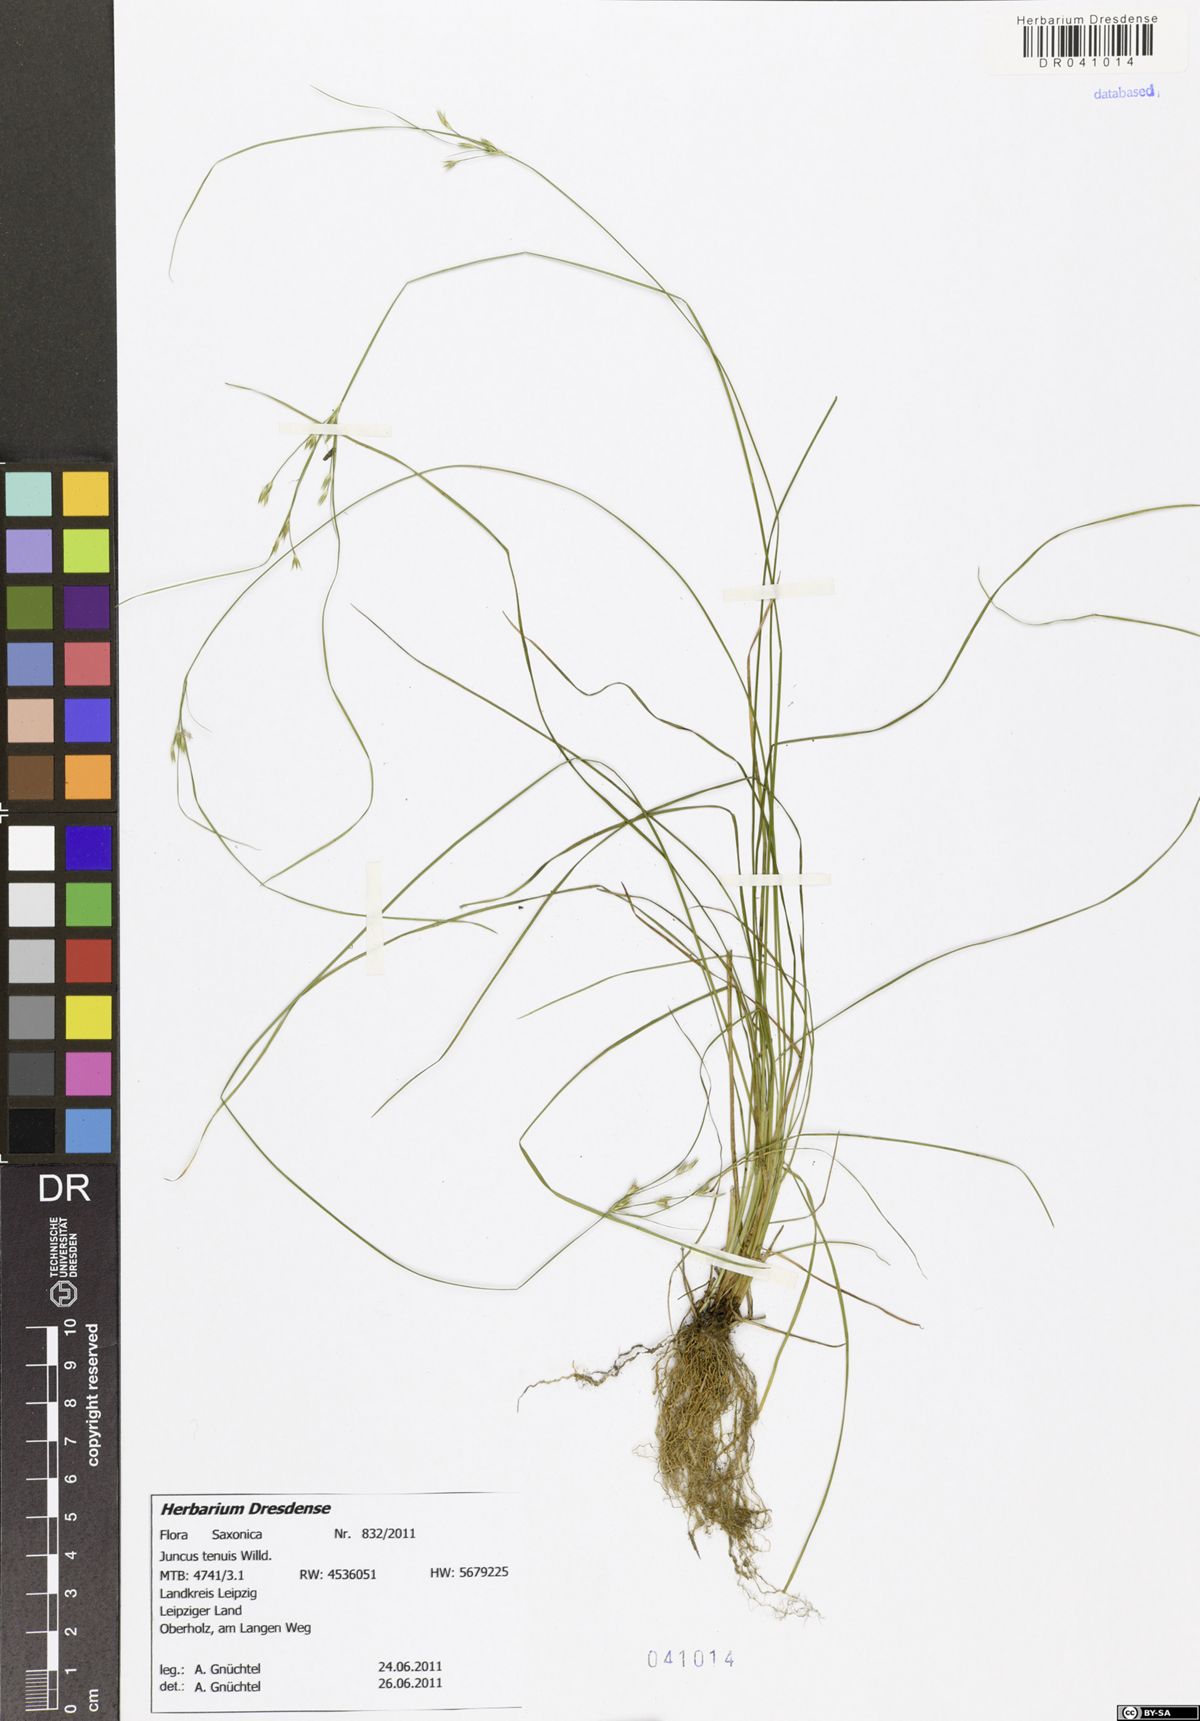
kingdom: Plantae
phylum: Tracheophyta
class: Liliopsida
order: Poales
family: Juncaceae
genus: Juncus
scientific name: Juncus tenuis
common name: Slender rush
